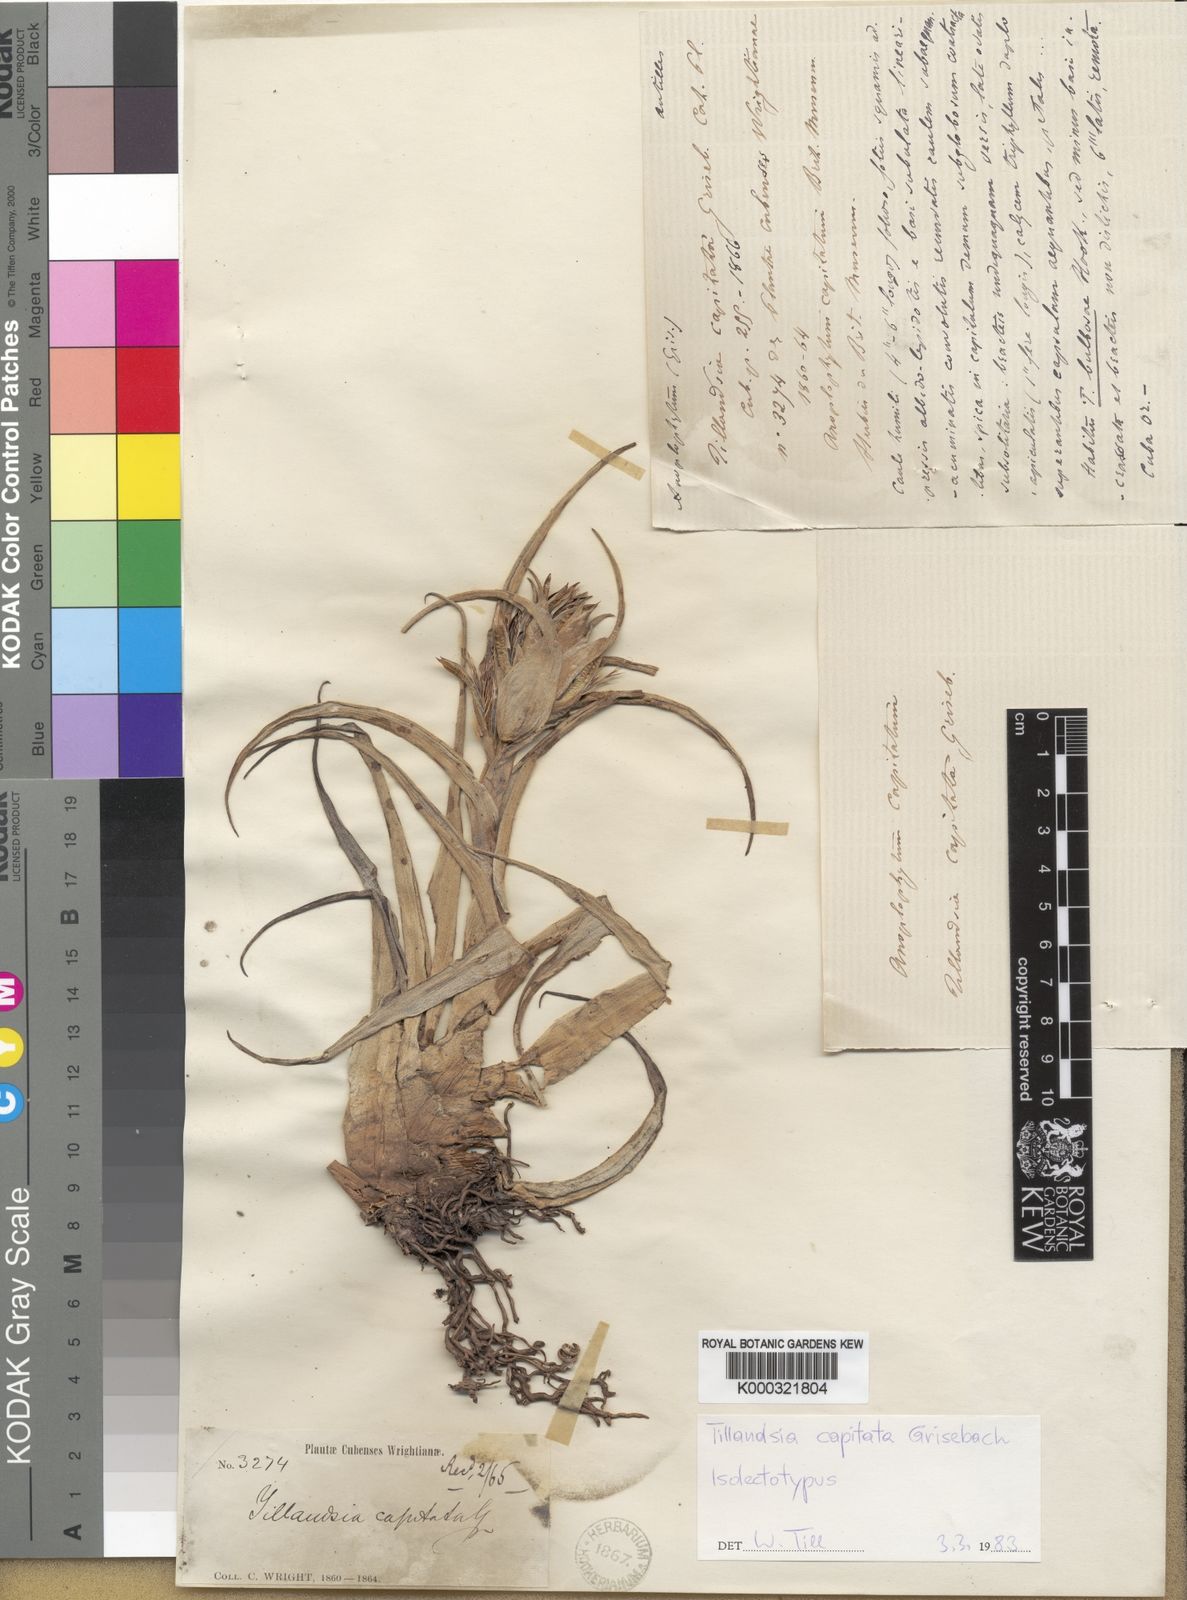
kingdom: Plantae
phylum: Tracheophyta
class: Liliopsida
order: Poales
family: Bromeliaceae
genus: Tillandsia
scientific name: Tillandsia capitata
